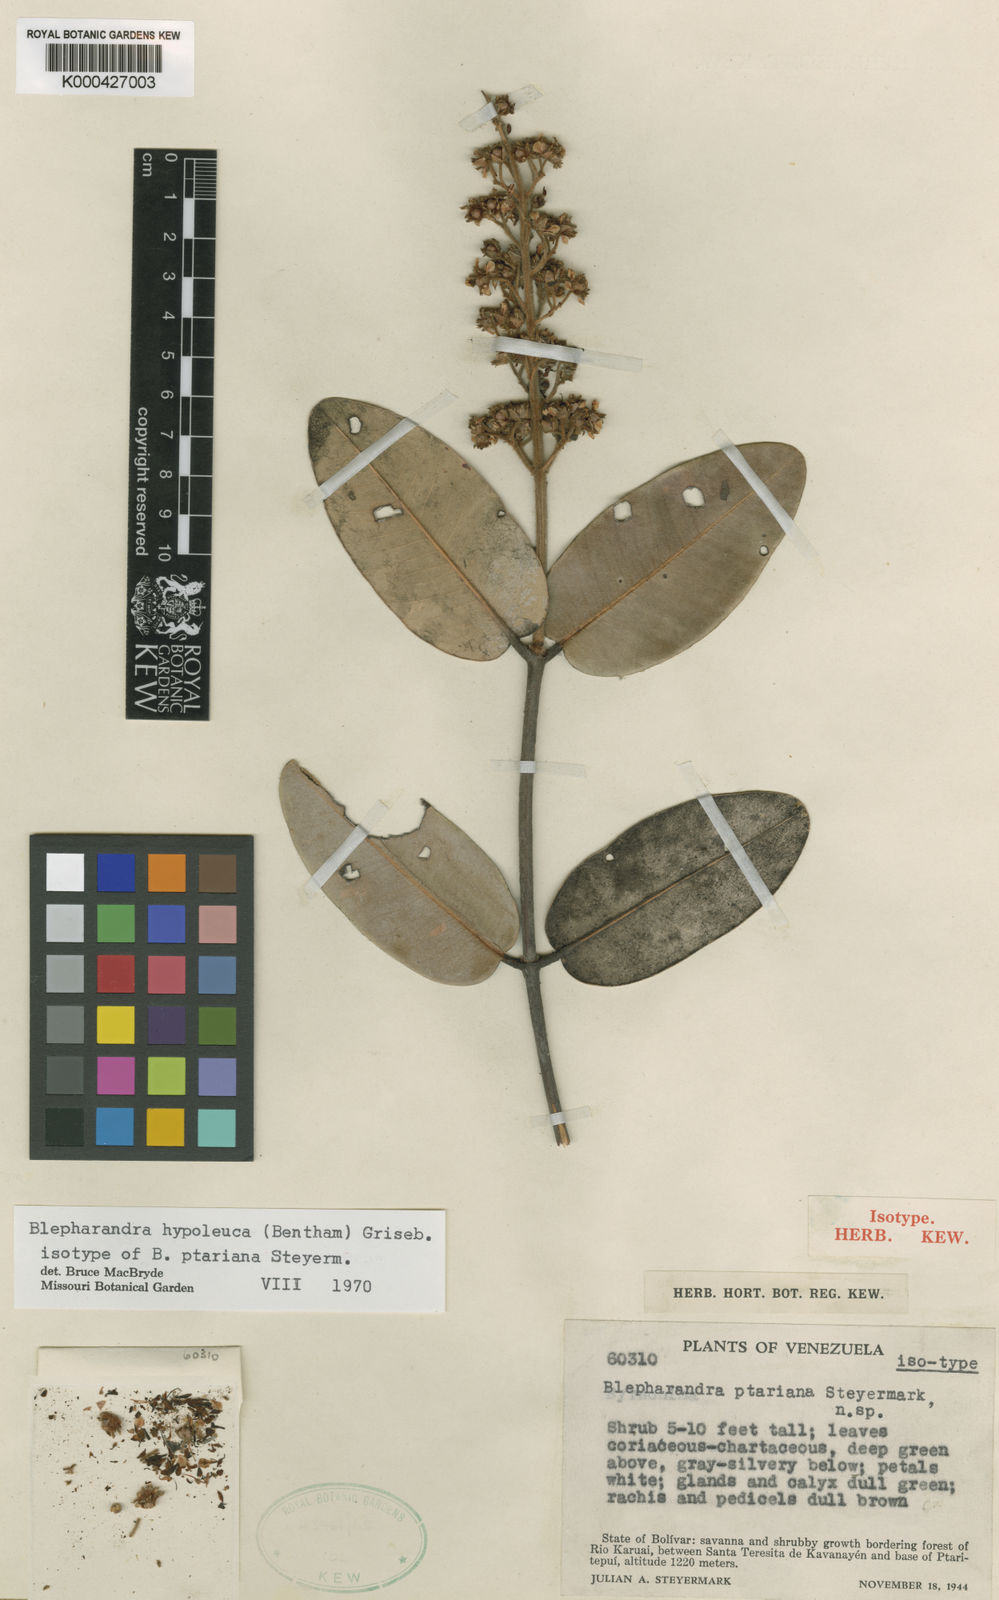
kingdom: Plantae
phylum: Tracheophyta
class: Magnoliopsida
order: Malpighiales
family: Malpighiaceae
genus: Blepharandra
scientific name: Blepharandra hypoleuca
